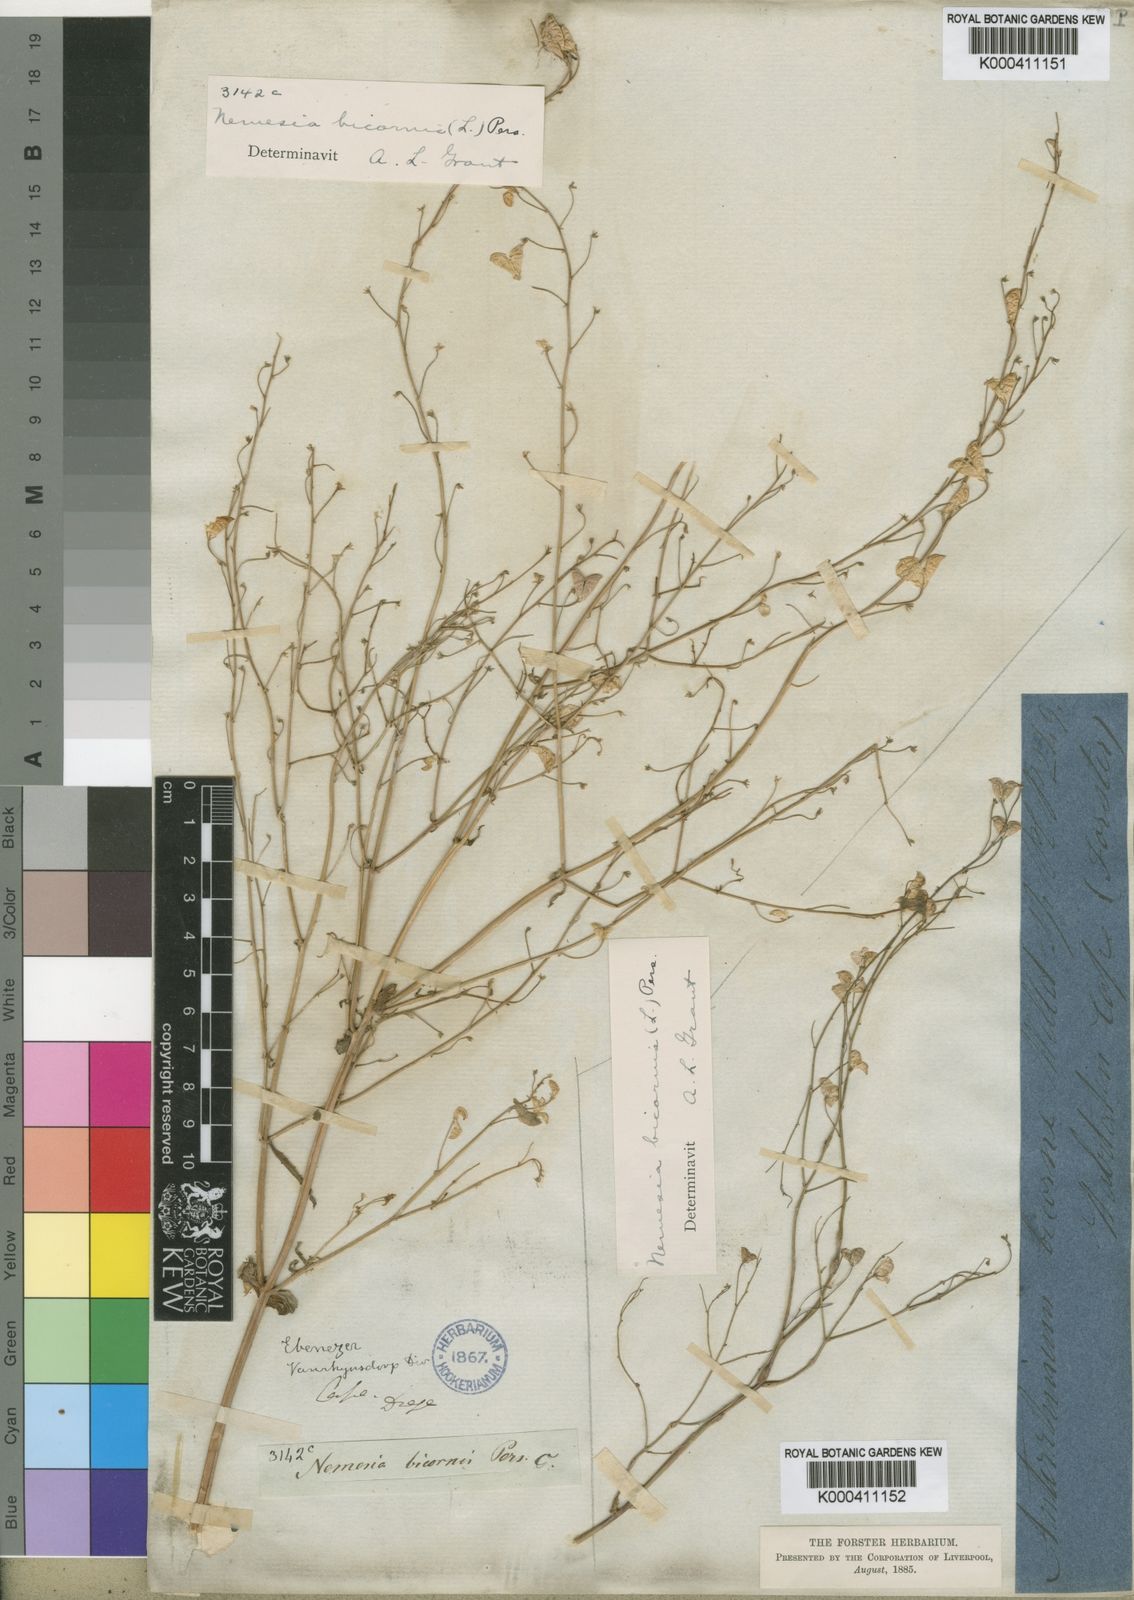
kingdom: Plantae
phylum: Tracheophyta
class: Magnoliopsida
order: Lamiales
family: Scrophulariaceae
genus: Nemesia
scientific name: Nemesia bicornis
